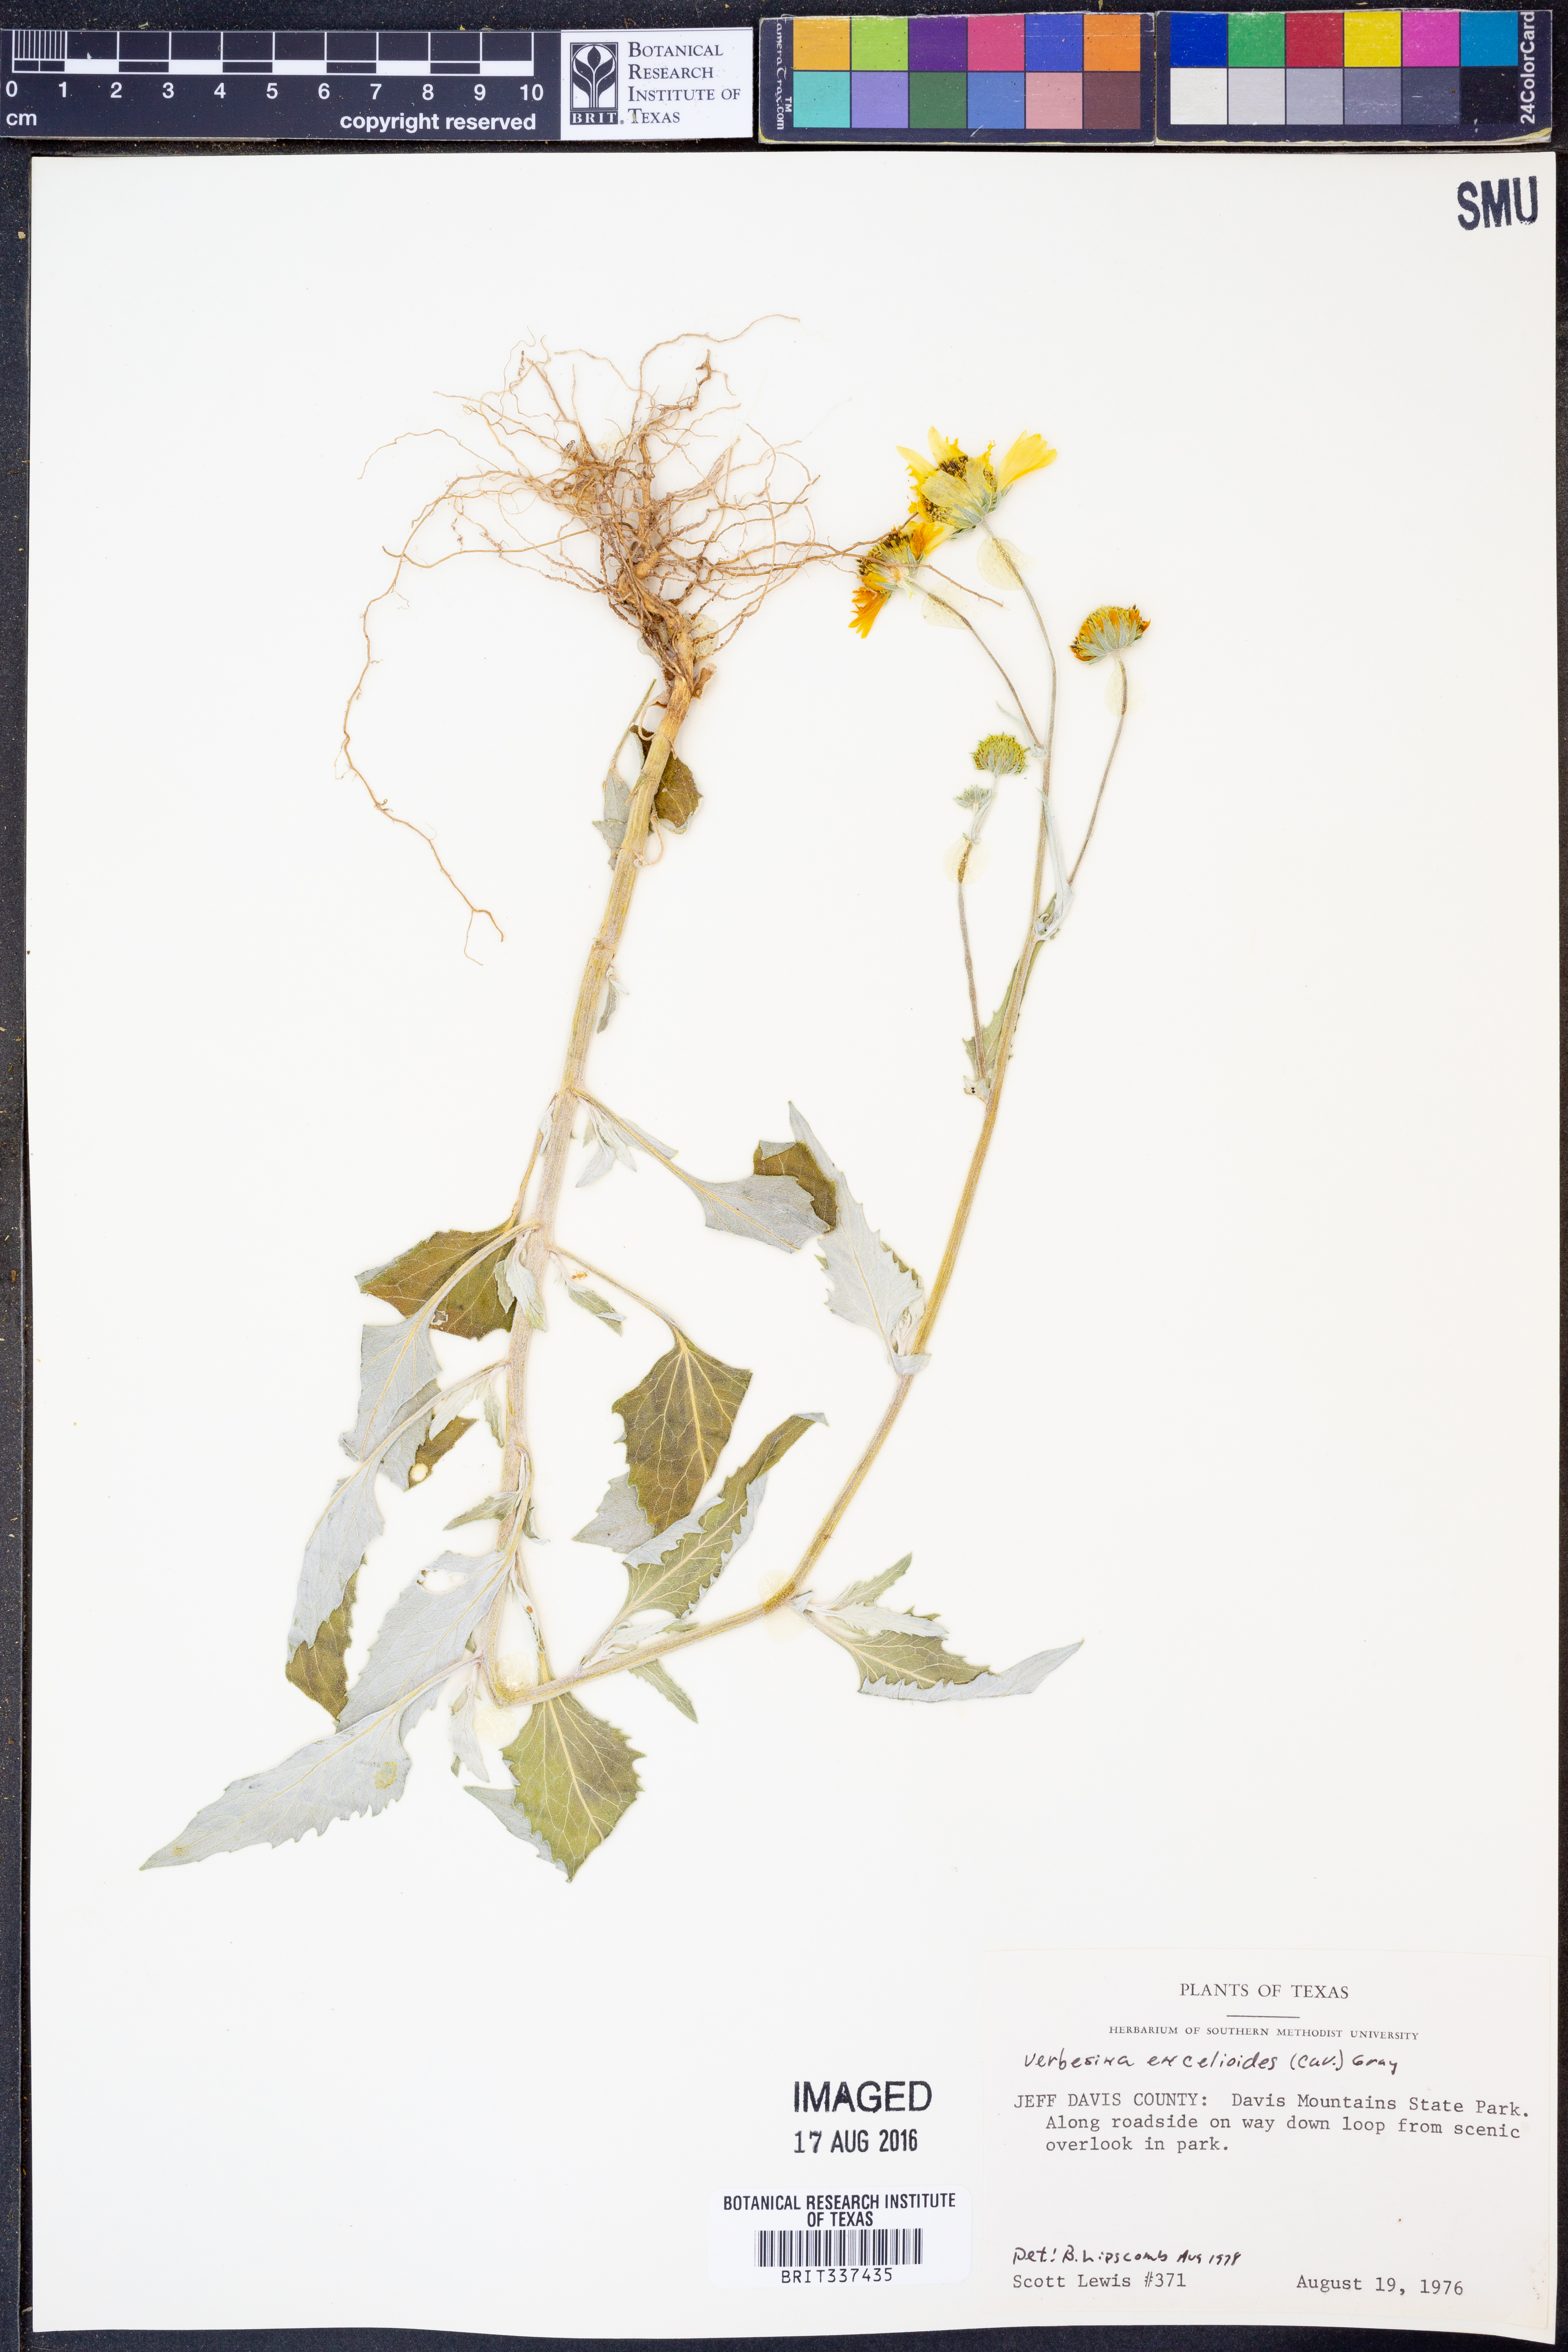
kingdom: Plantae
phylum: Tracheophyta
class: Magnoliopsida
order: Asterales
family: Asteraceae
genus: Verbesina
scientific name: Verbesina encelioides
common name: Golden crownbeard
